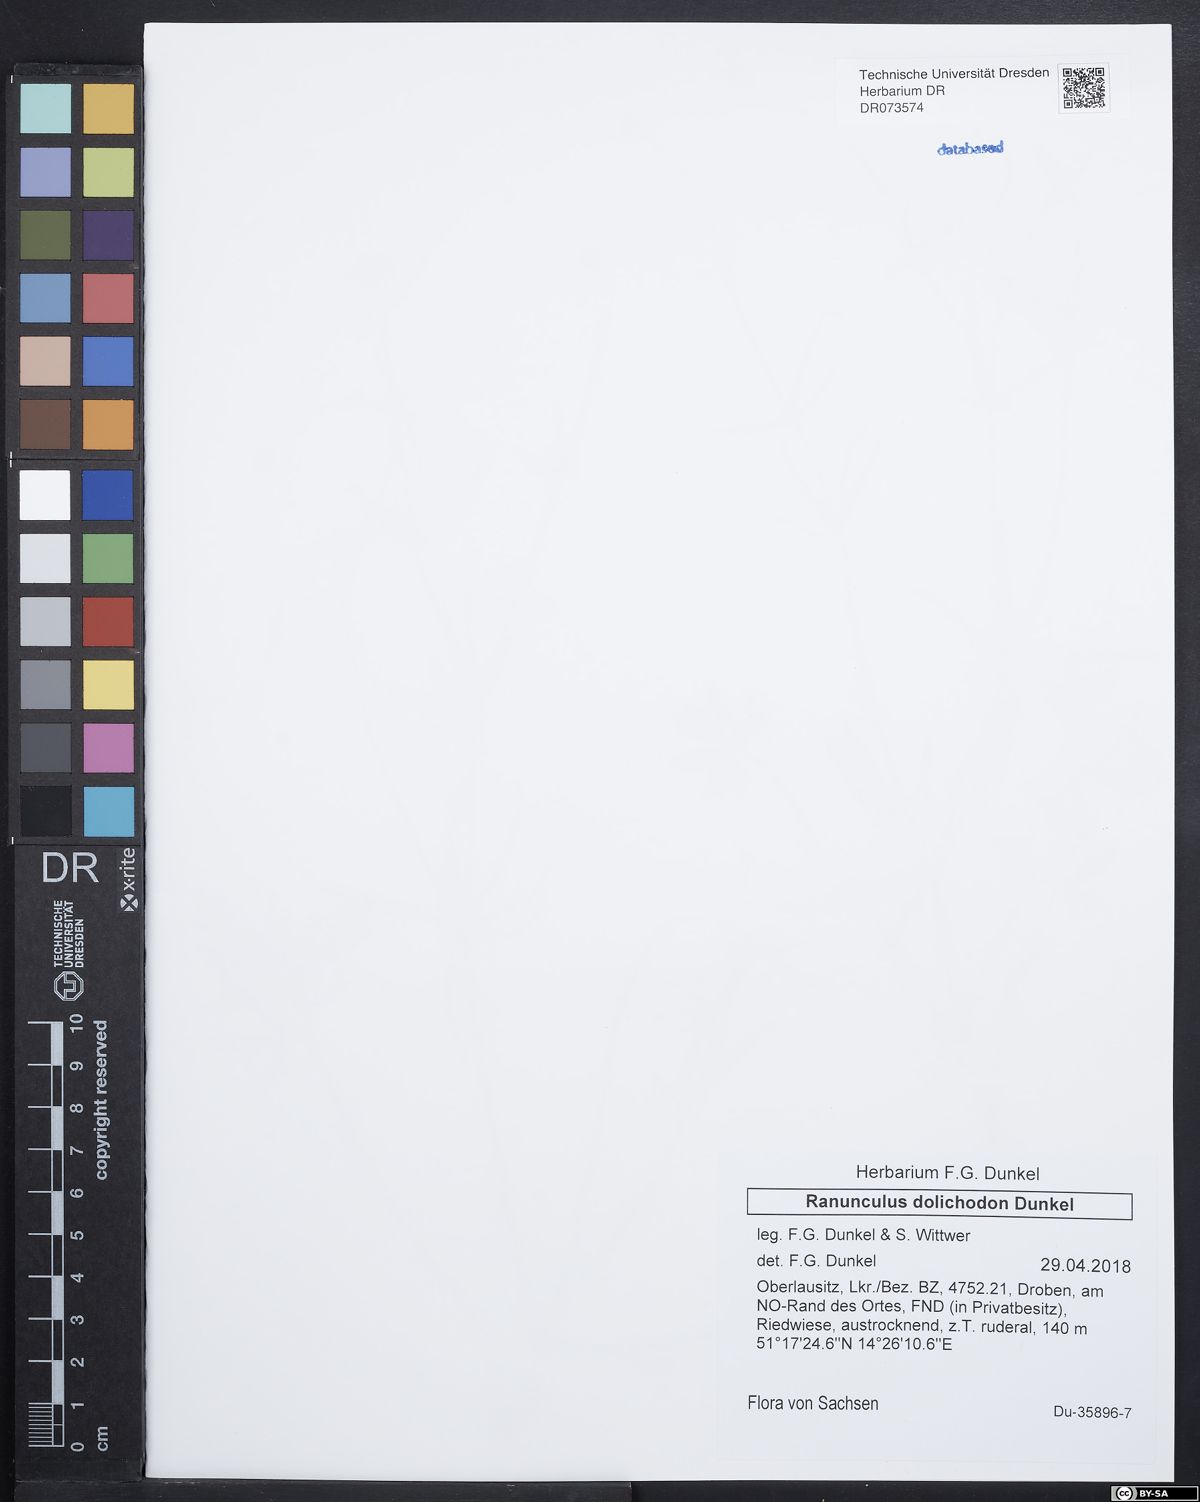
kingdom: Plantae
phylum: Tracheophyta
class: Magnoliopsida
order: Ranunculales
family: Ranunculaceae
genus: Ranunculus
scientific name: Ranunculus dolichodon
